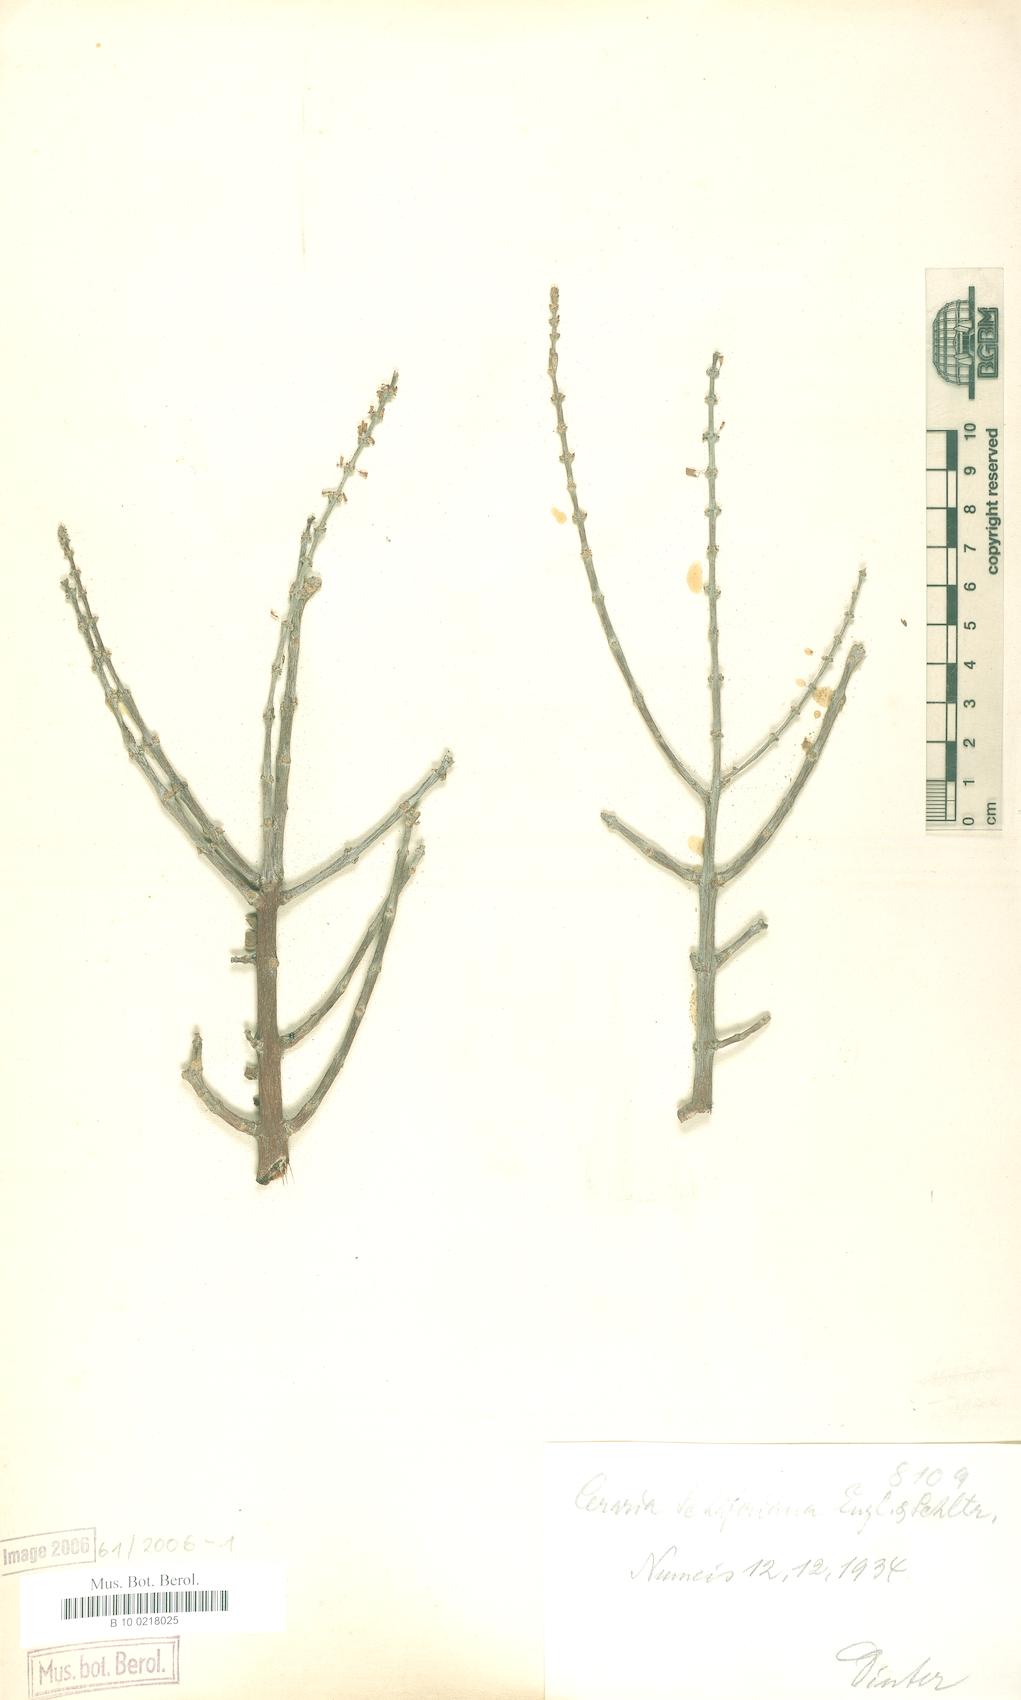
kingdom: Plantae
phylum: Tracheophyta
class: Magnoliopsida
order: Caryophyllales
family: Didiereaceae
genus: Portulacaria
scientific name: Portulacaria fruticulosa
